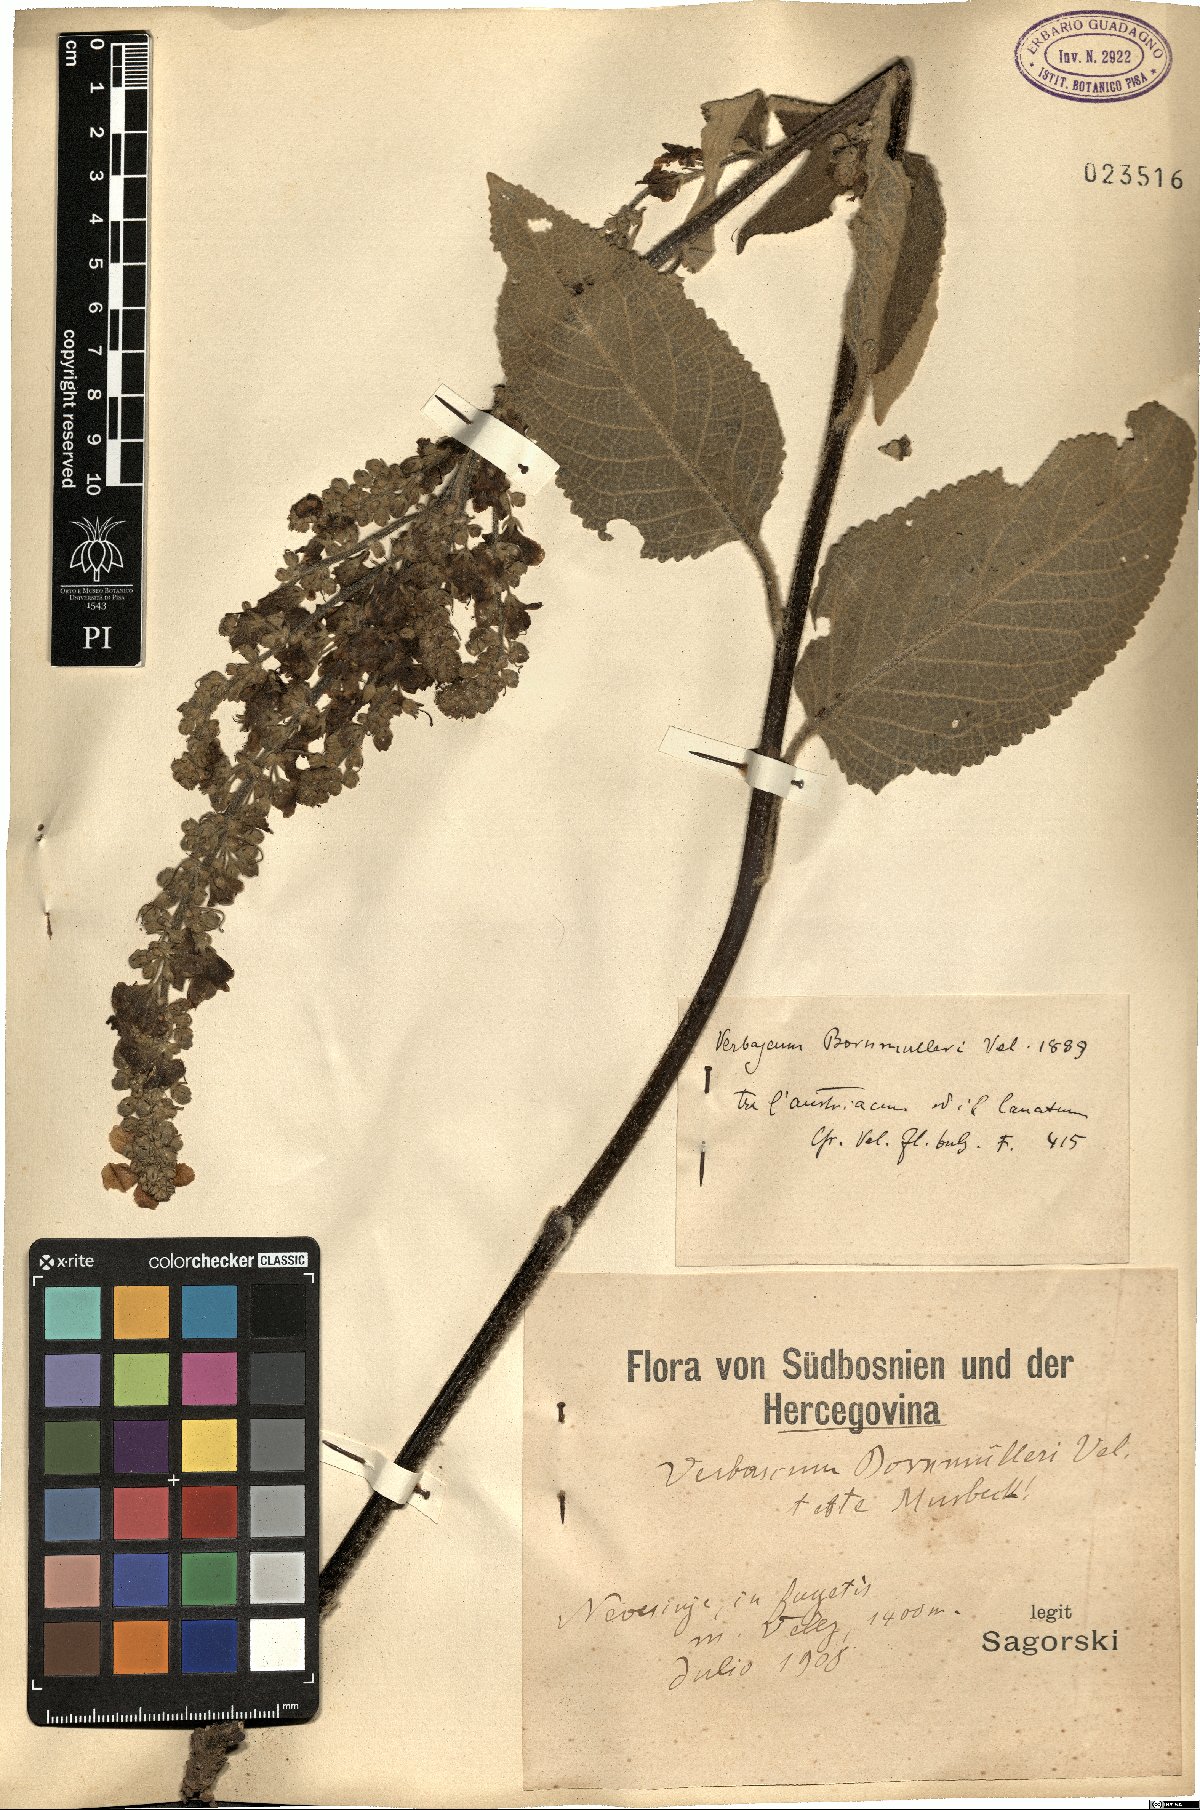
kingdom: Plantae
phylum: Tracheophyta
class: Magnoliopsida
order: Lamiales
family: Scrophulariaceae
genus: Verbascum
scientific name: Verbascum nigrum
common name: Dark mullein
